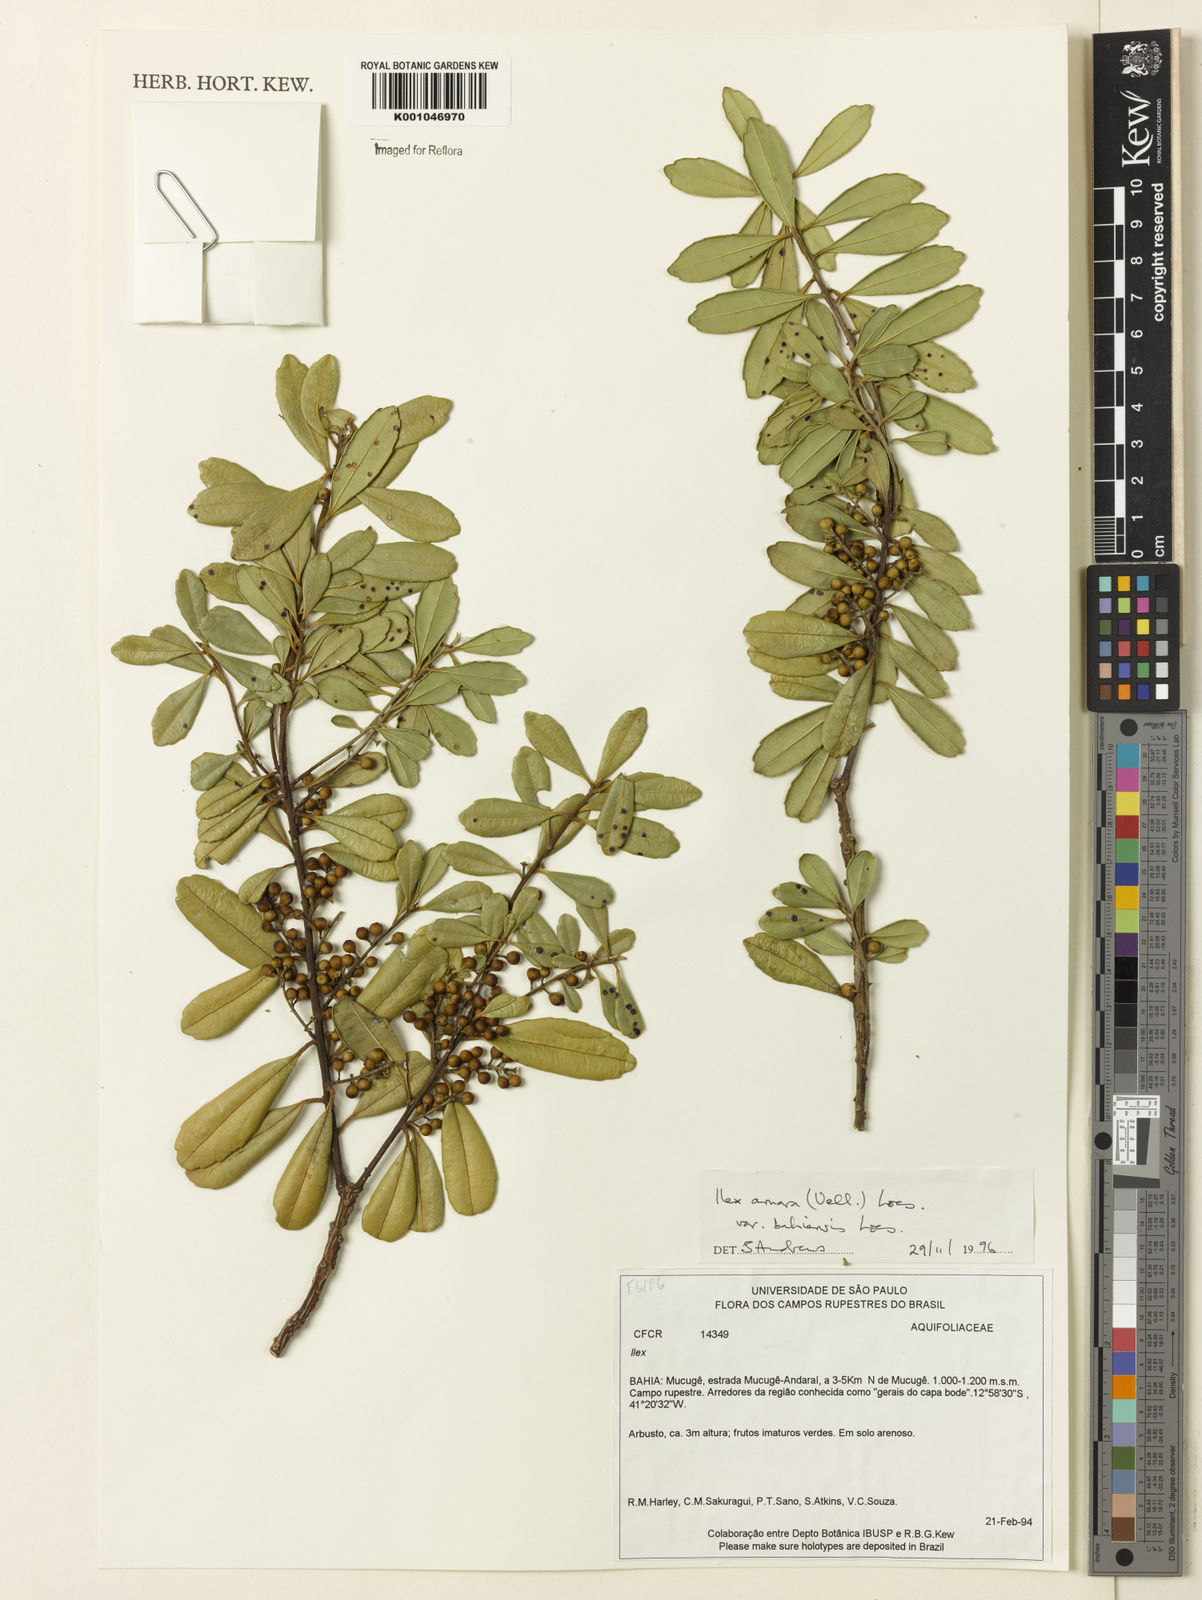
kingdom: Plantae
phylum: Tracheophyta
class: Magnoliopsida
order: Aquifoliales
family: Aquifoliaceae
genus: Ilex
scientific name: Ilex dumosa
